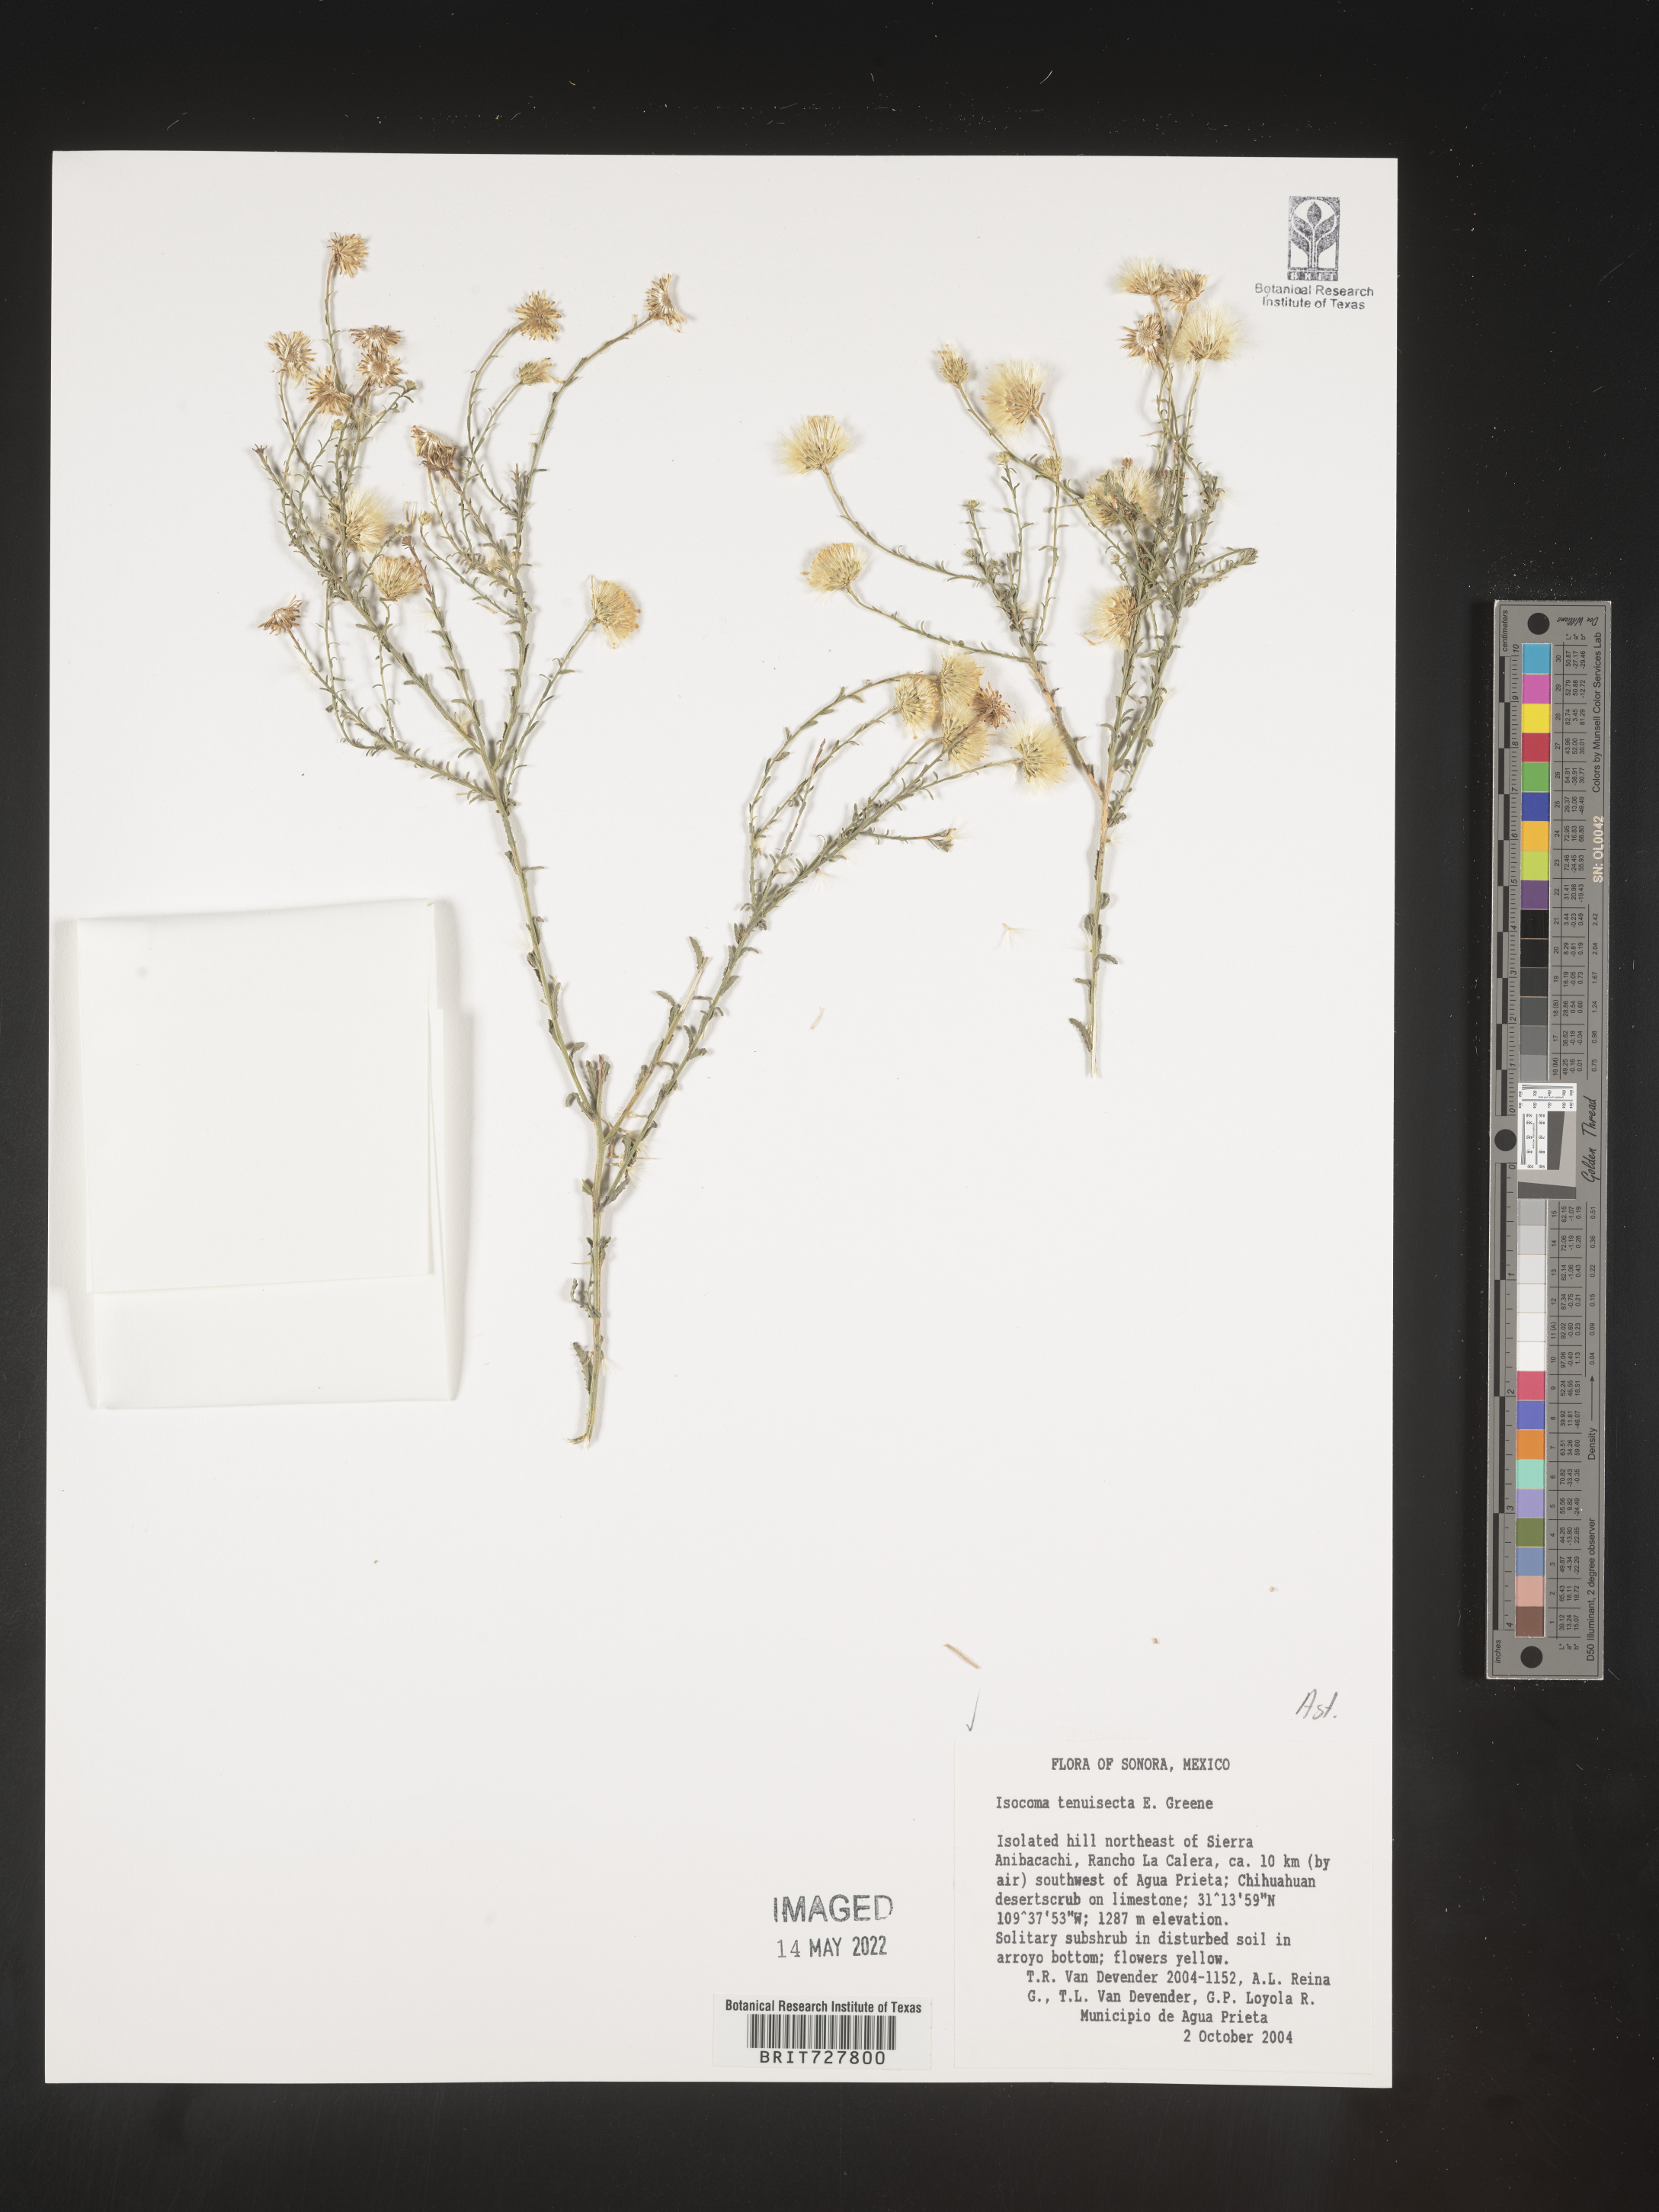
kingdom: Plantae
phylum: Tracheophyta
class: Magnoliopsida
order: Asterales
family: Asteraceae
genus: Isocoma
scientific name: Isocoma
